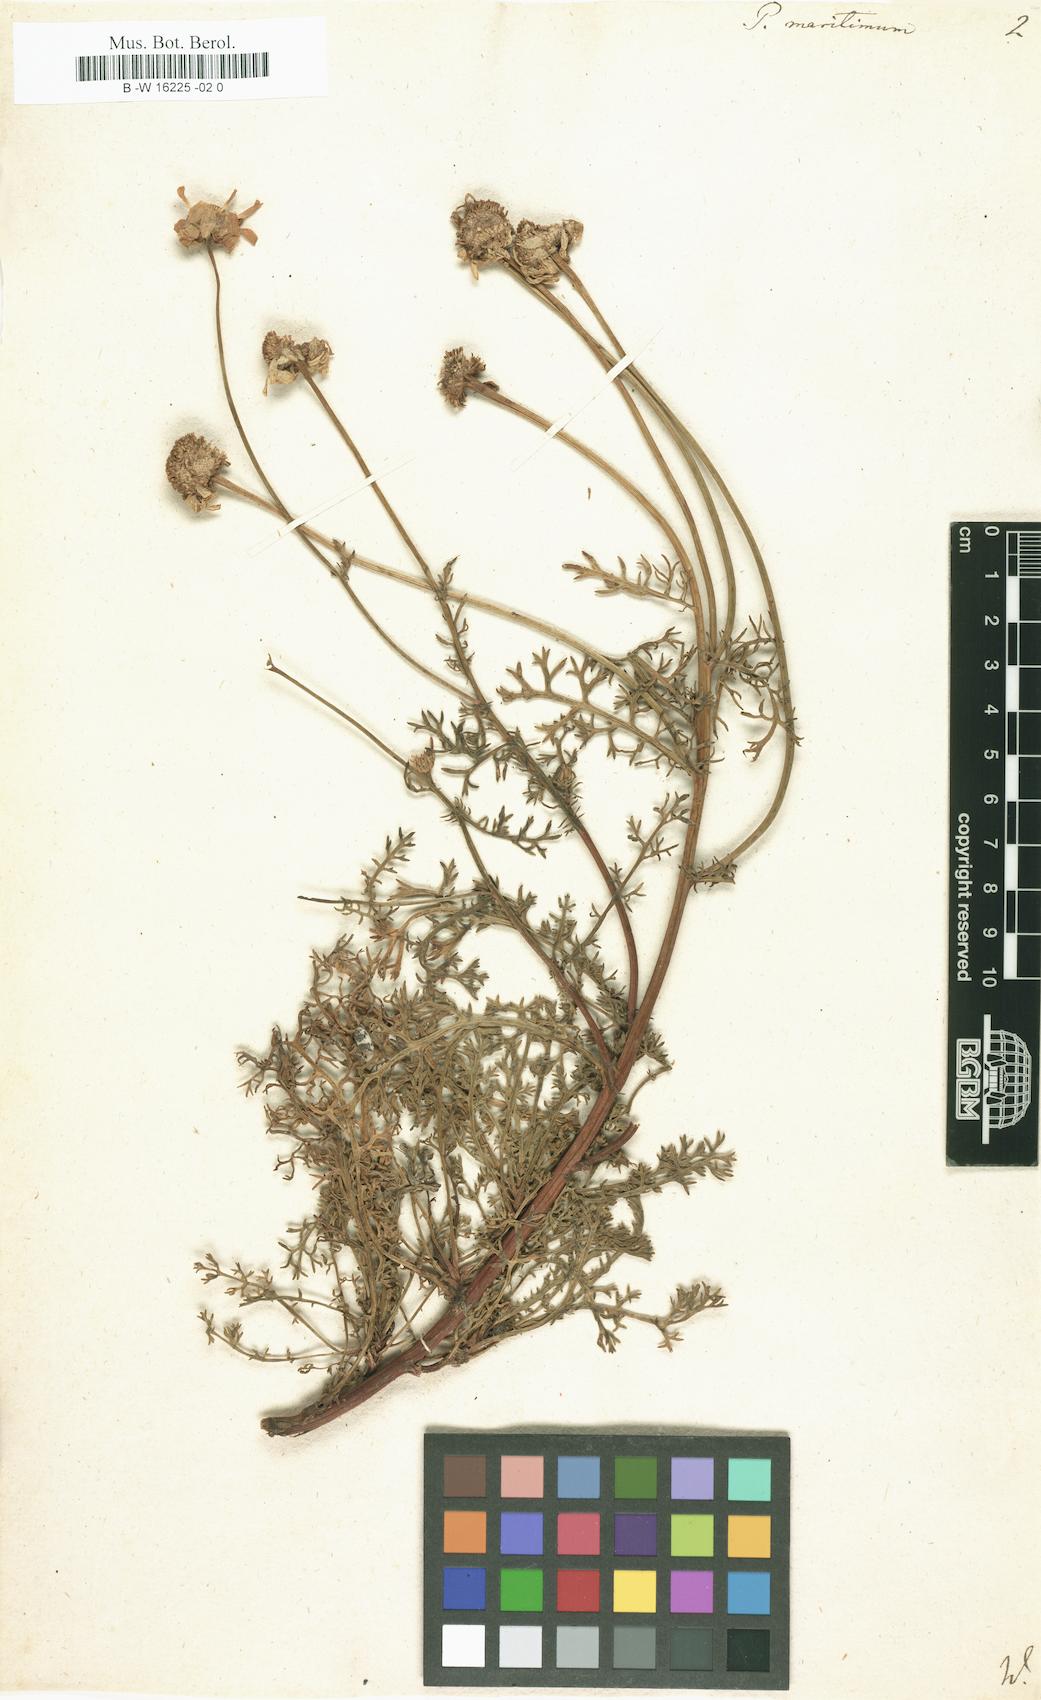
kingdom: Plantae
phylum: Tracheophyta
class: Magnoliopsida
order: Asterales
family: Asteraceae
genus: Tripleurospermum
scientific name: Tripleurospermum maritimum
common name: Sea mayweed
